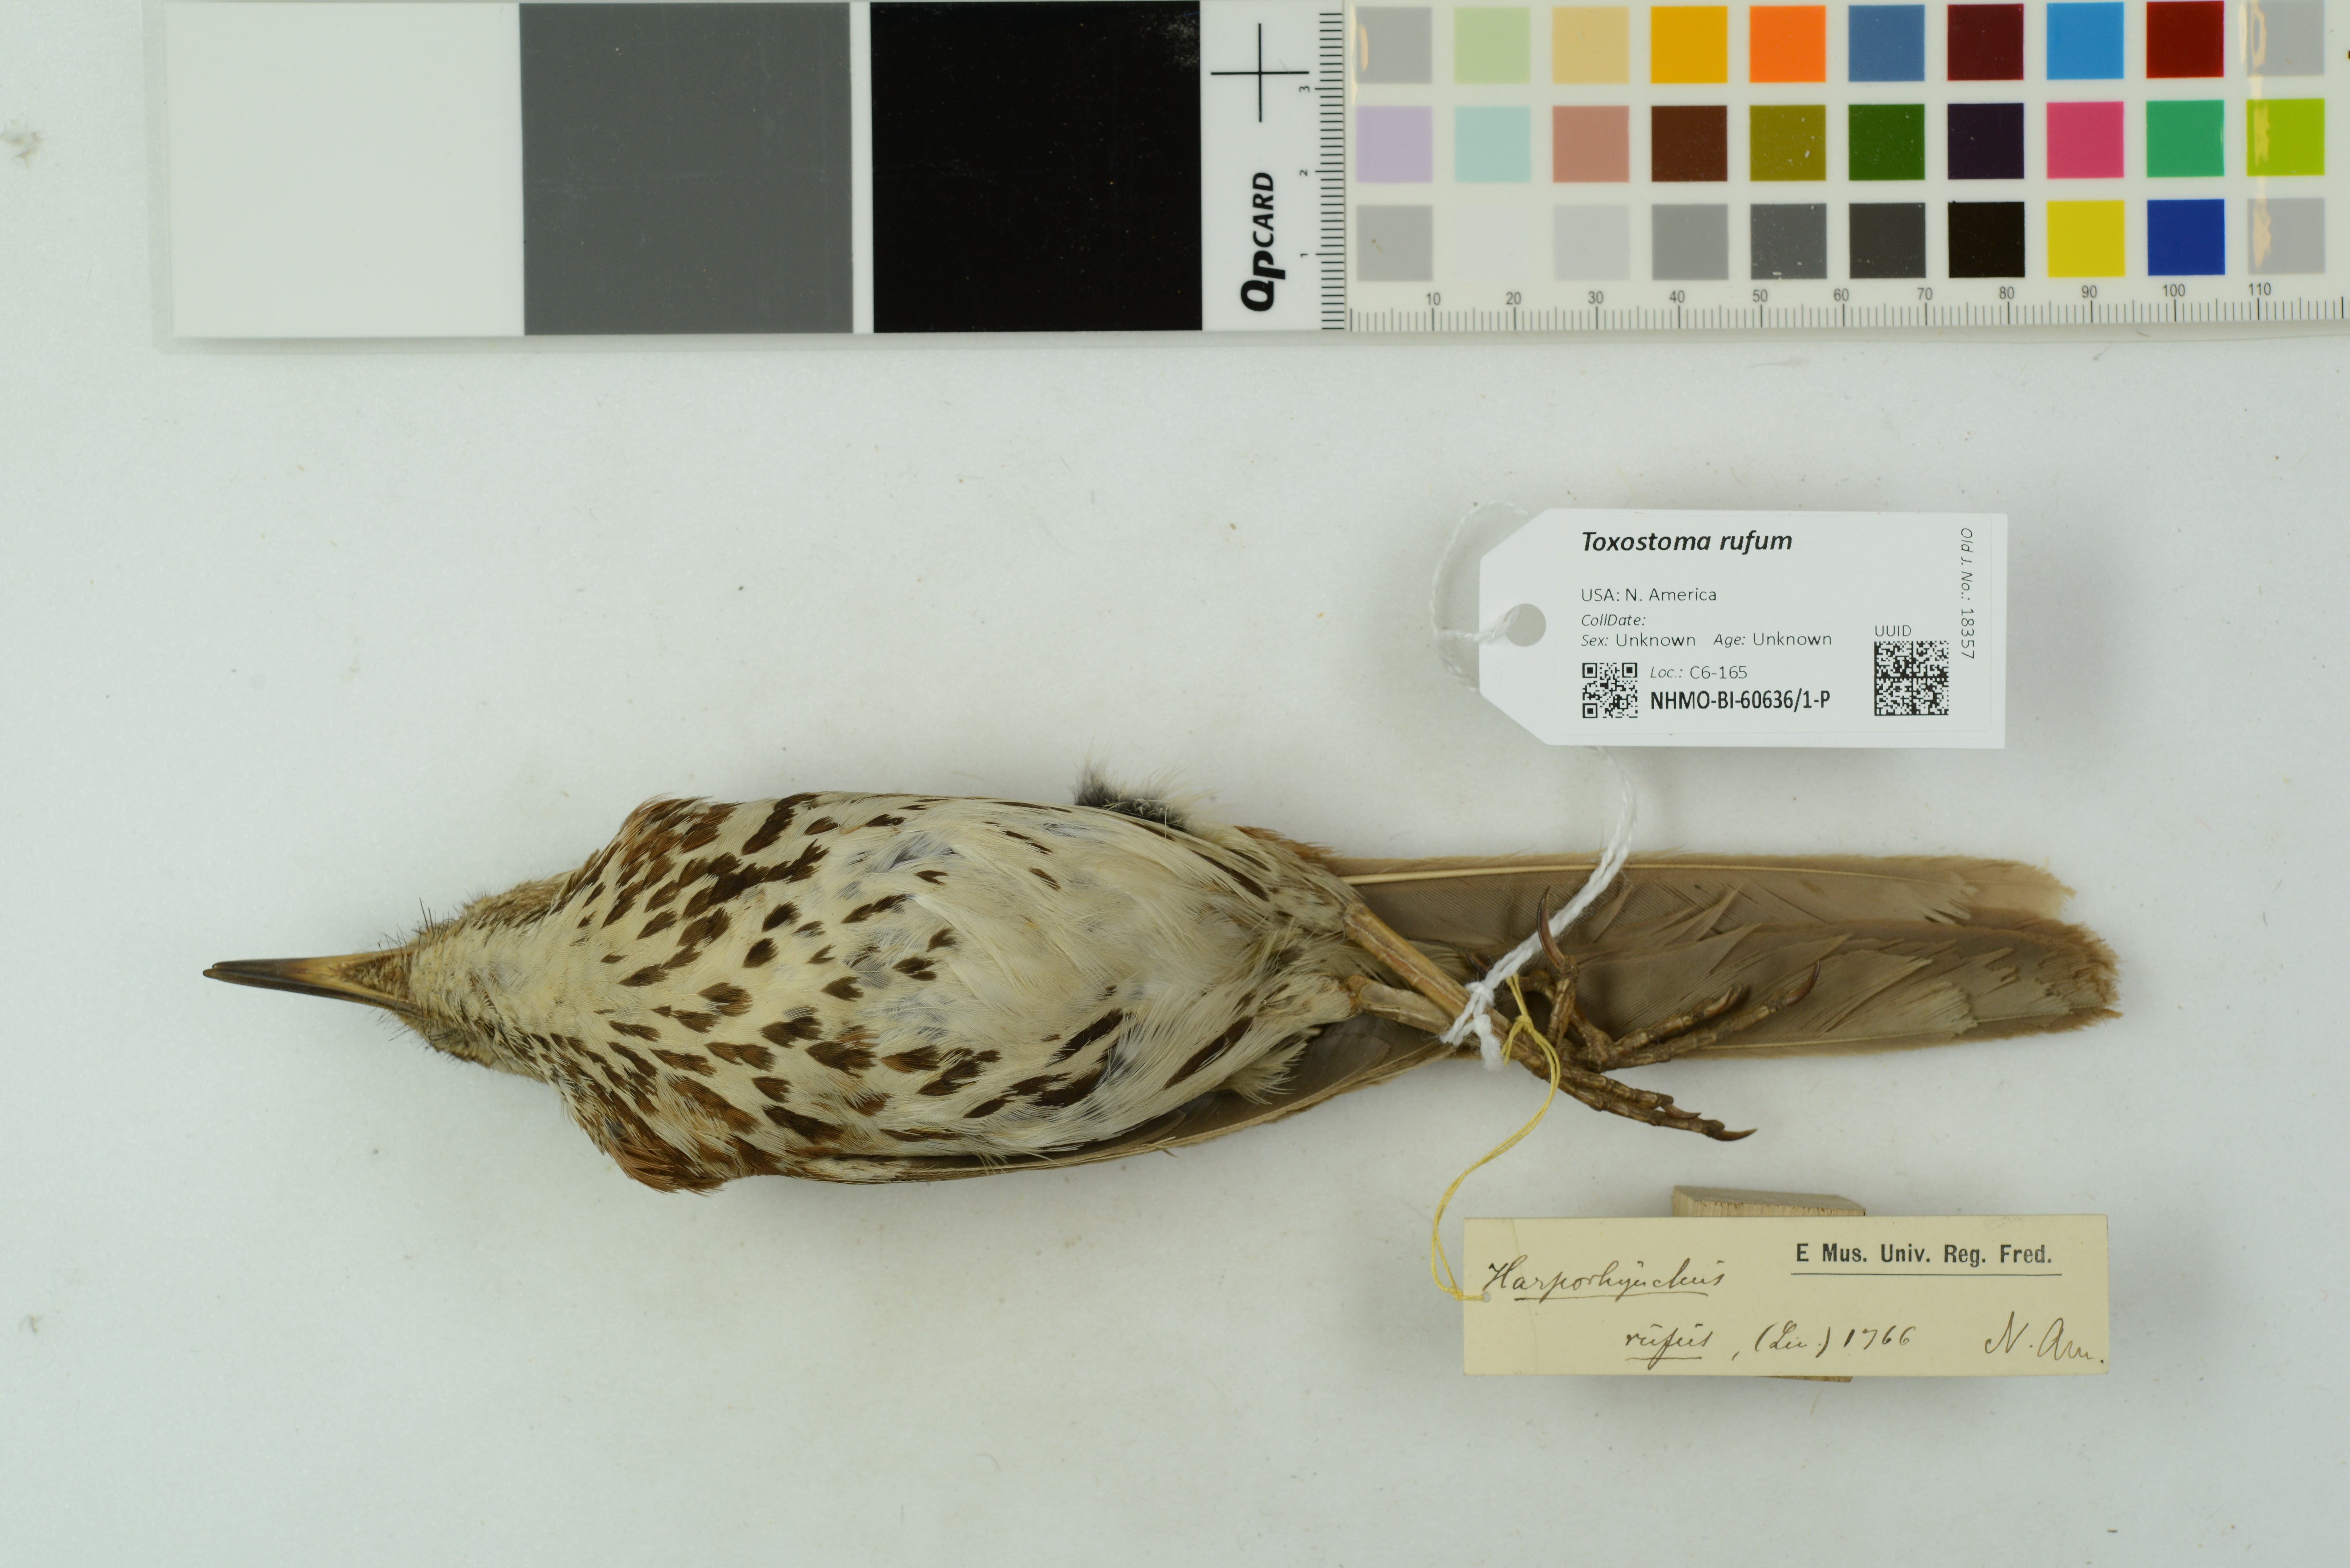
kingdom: Animalia
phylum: Chordata
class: Aves
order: Passeriformes
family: Mimidae
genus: Toxostoma
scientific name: Toxostoma rufum
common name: Brown thrasher
